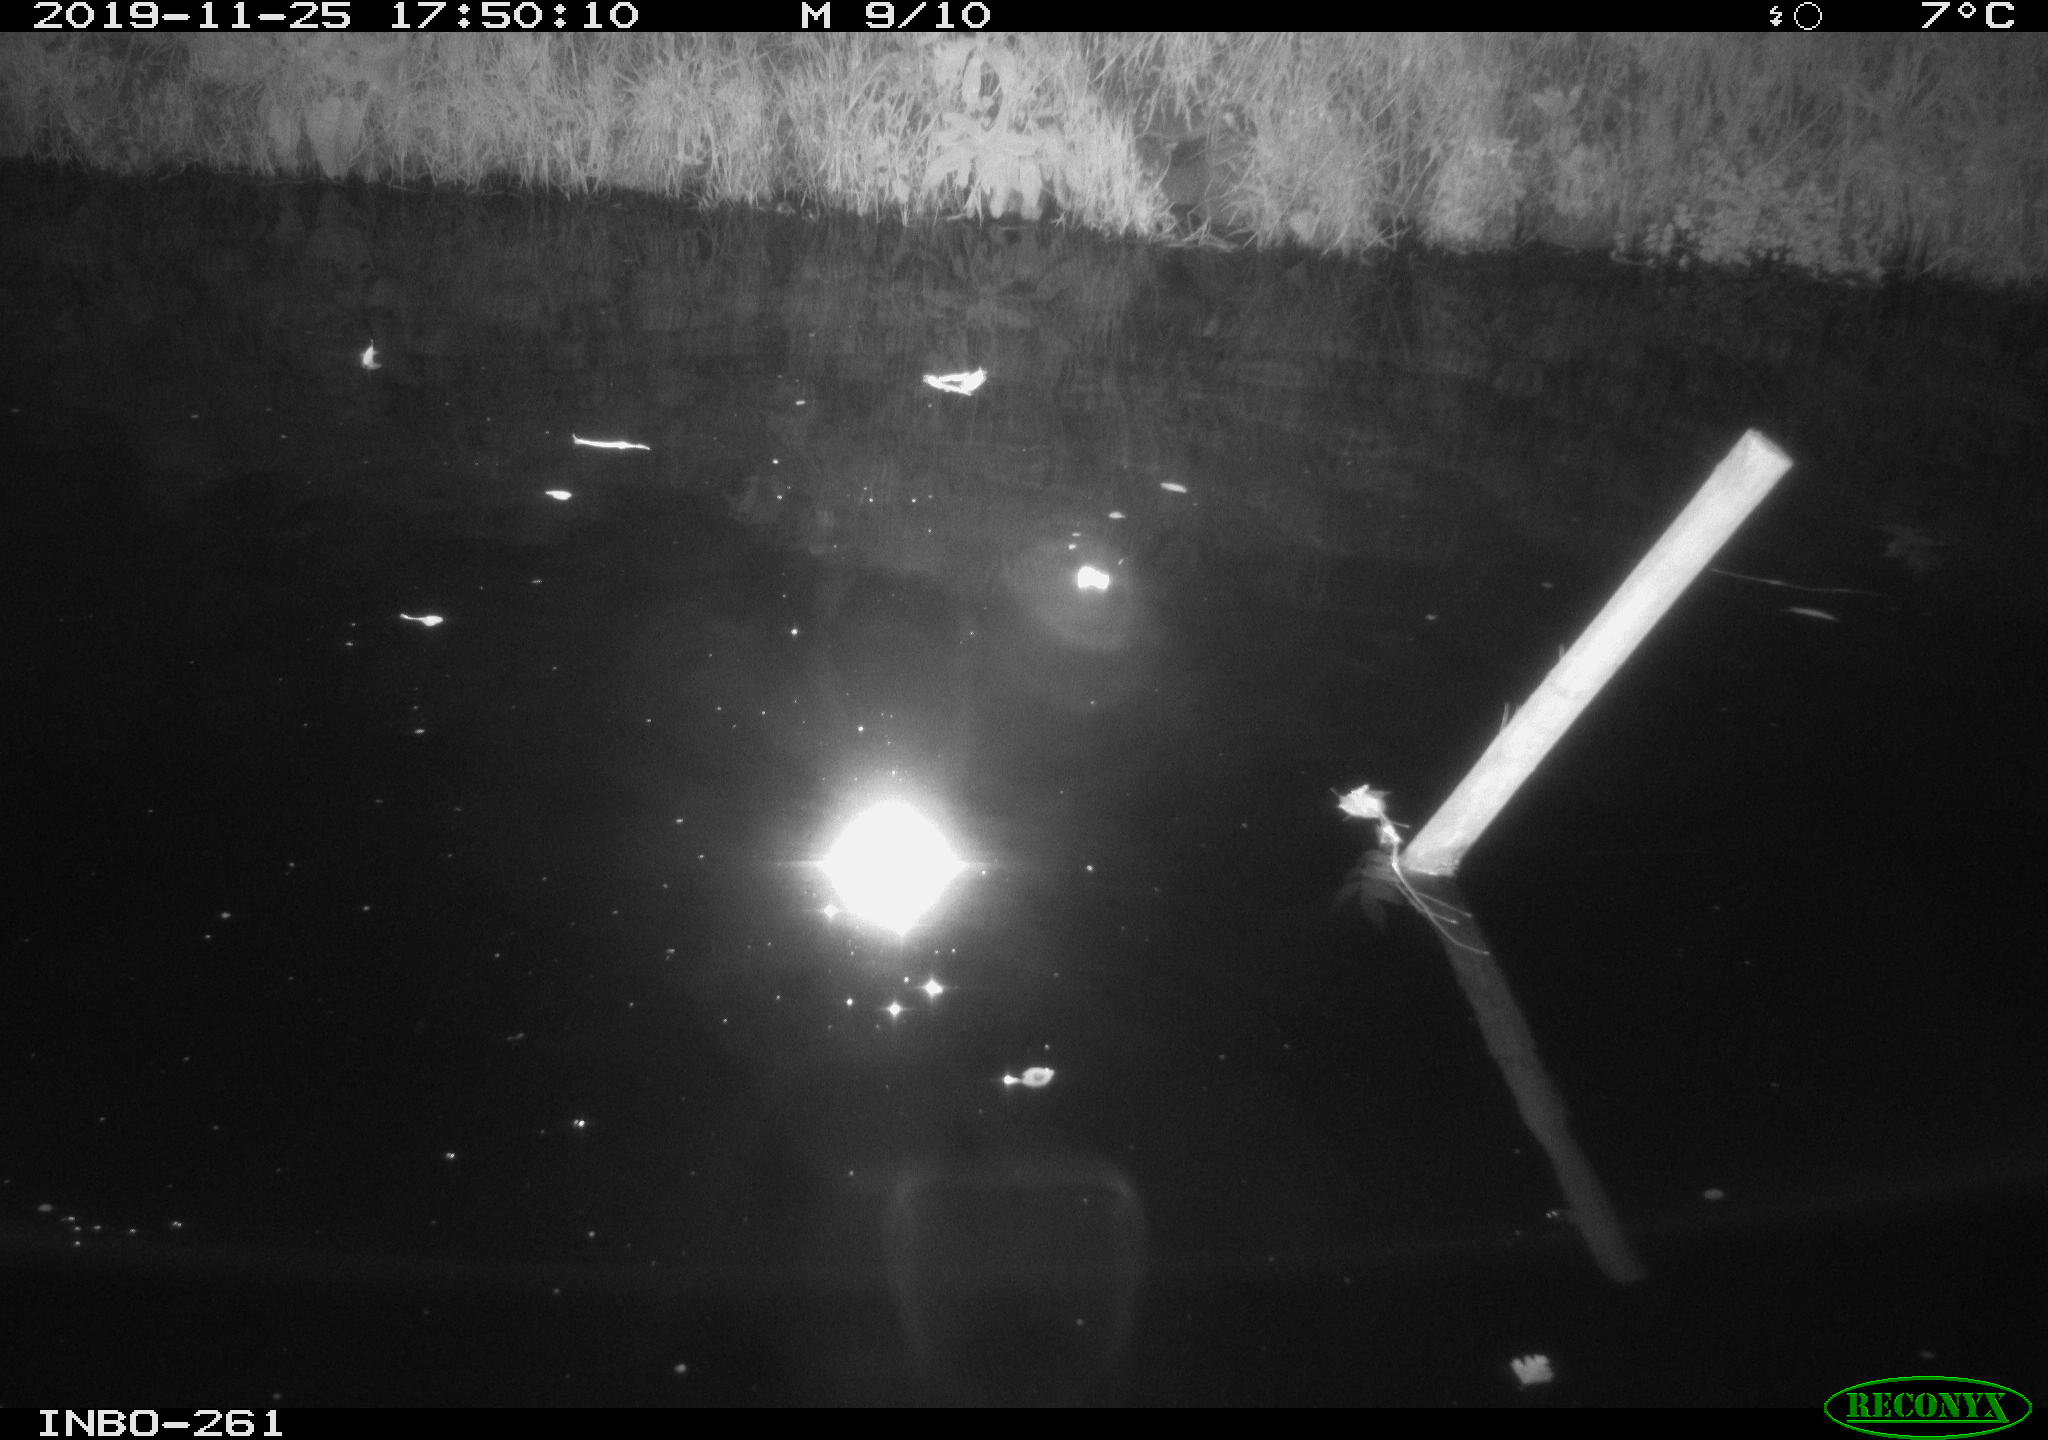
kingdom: Animalia
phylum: Chordata
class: Aves
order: Anseriformes
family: Anatidae
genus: Anas
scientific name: Anas platyrhynchos
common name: Mallard
